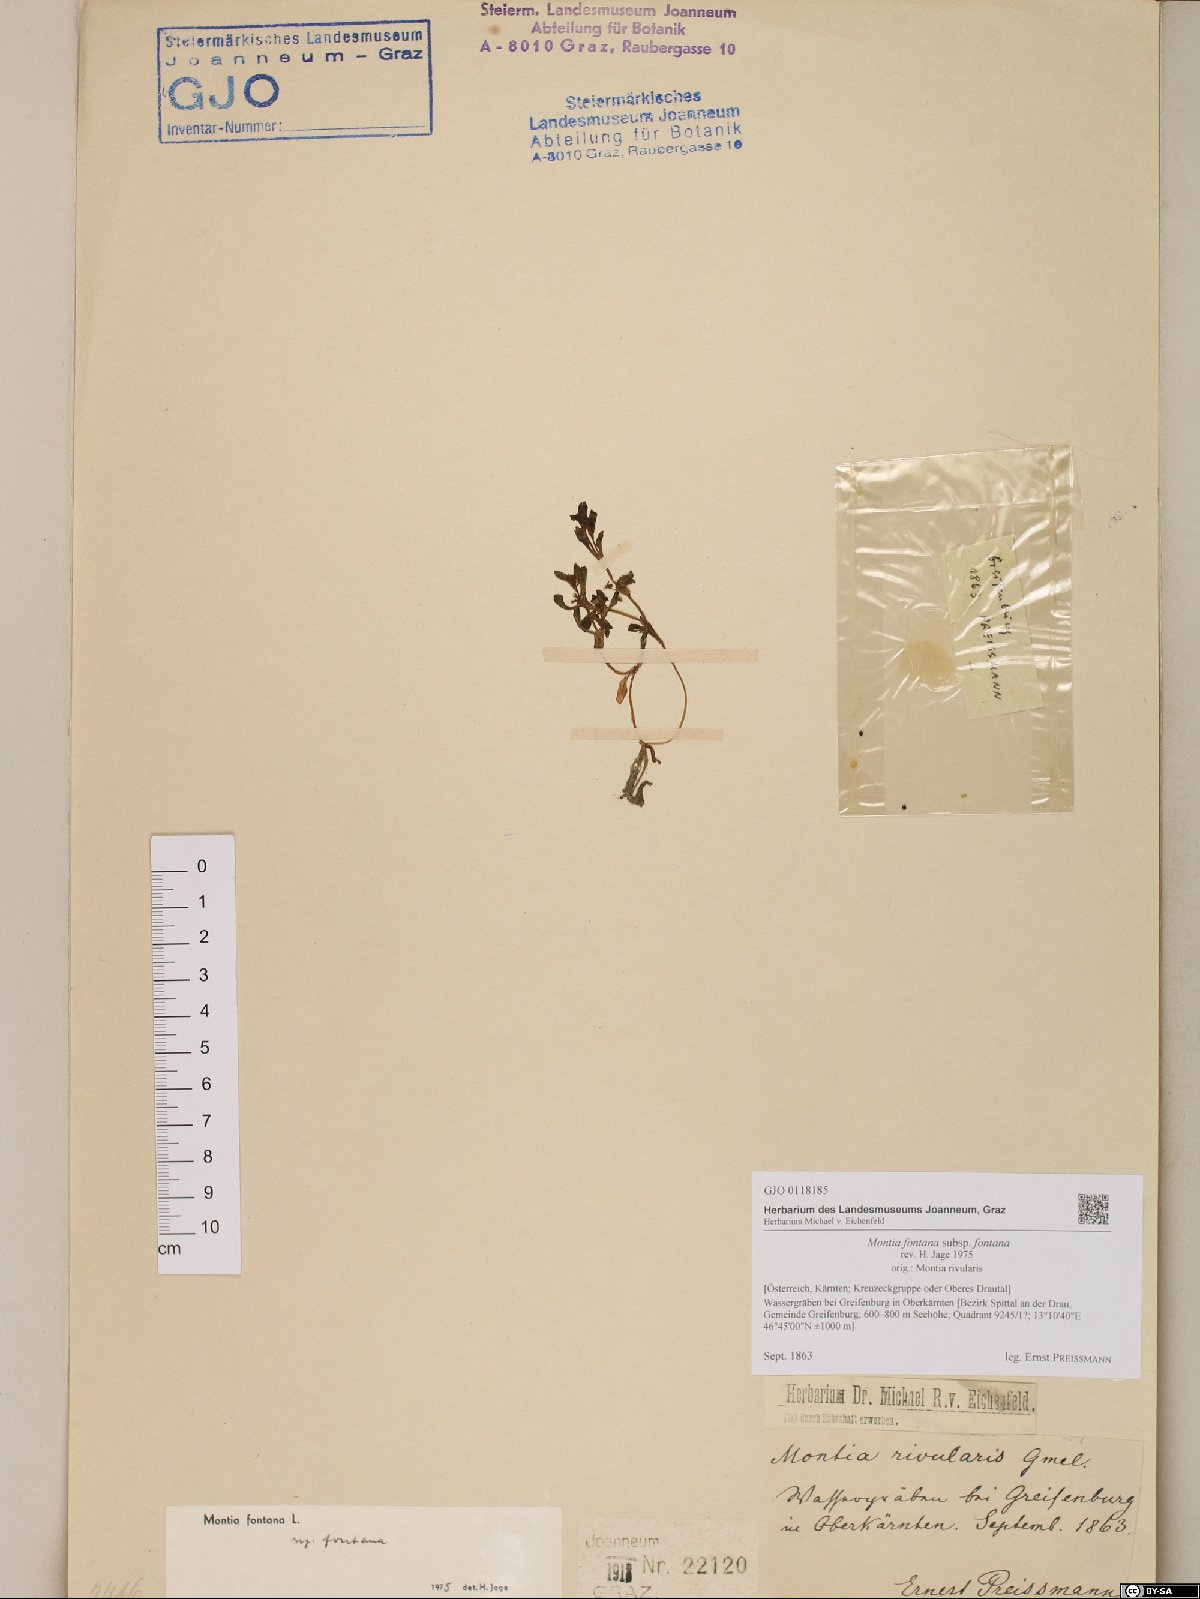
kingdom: Plantae
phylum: Tracheophyta
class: Magnoliopsida
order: Caryophyllales
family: Montiaceae
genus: Montia
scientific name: Montia fontana
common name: Blinks
